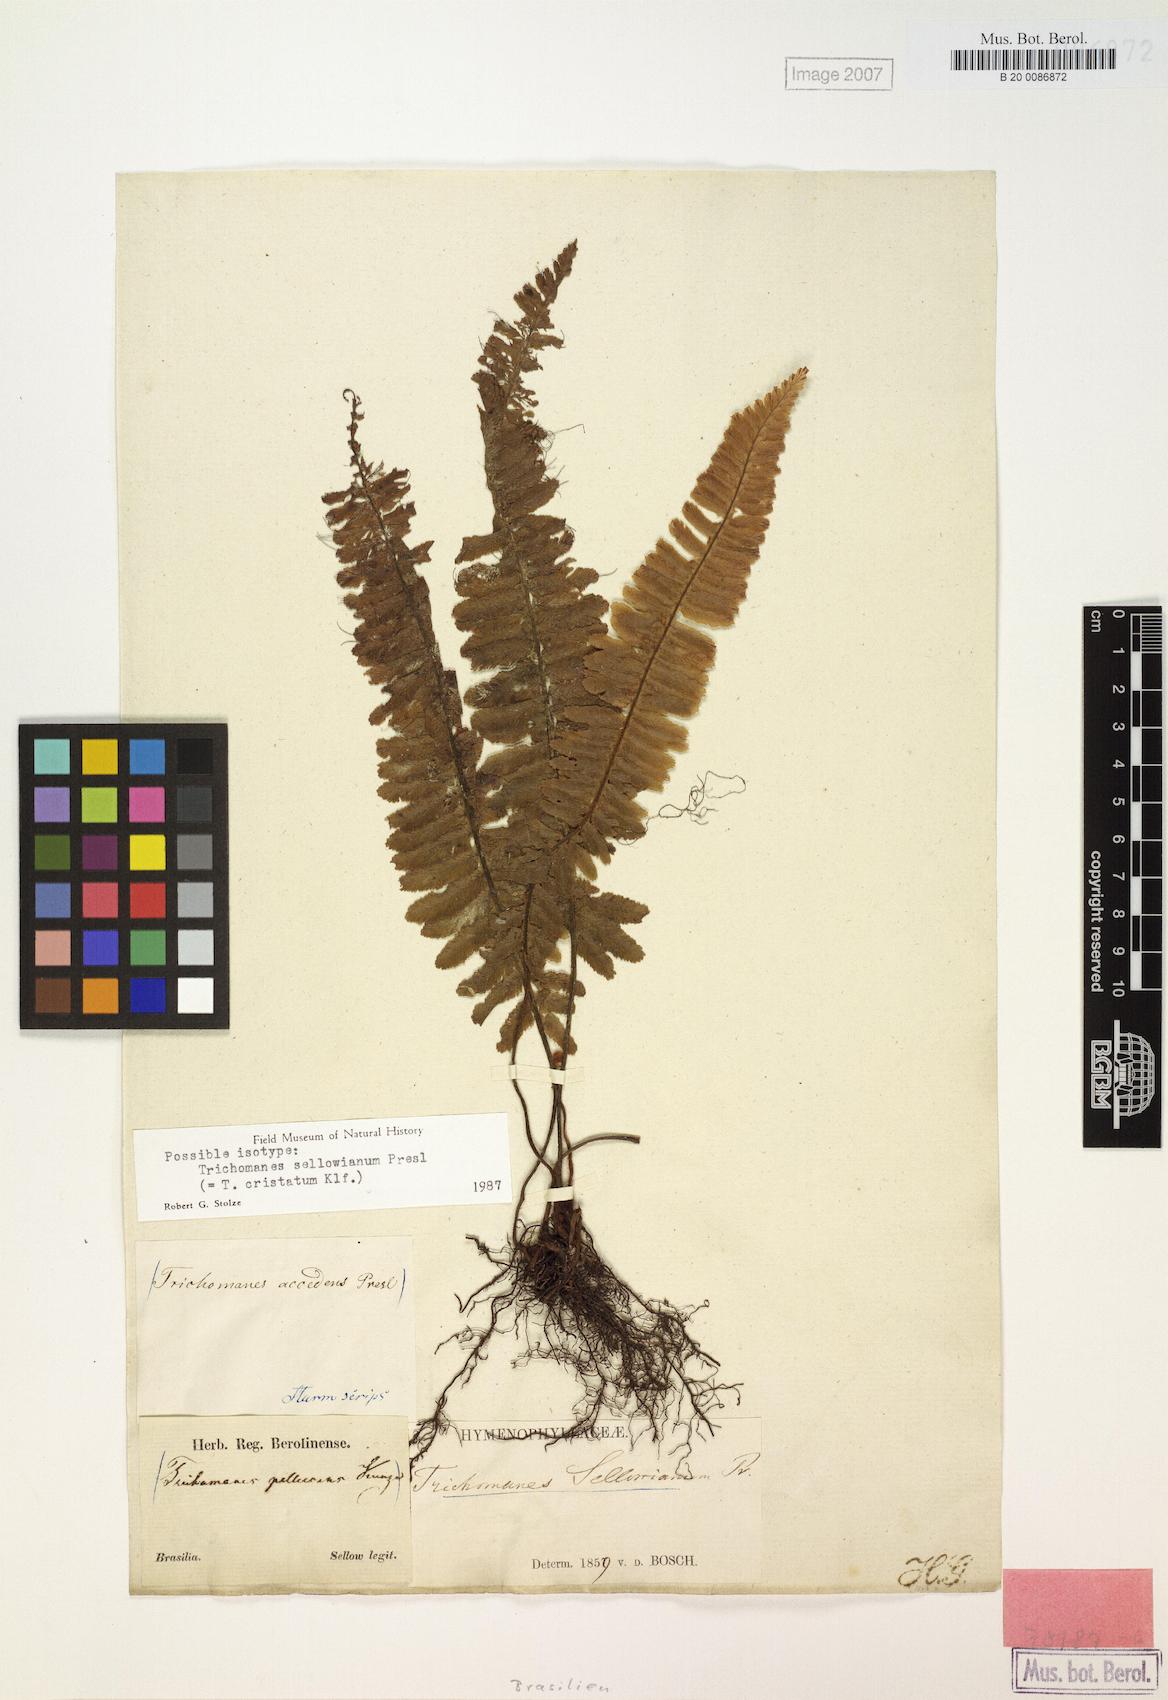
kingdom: Plantae
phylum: Tracheophyta
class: Polypodiopsida
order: Hymenophyllales
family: Hymenophyllaceae
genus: Trichomanes
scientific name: Trichomanes cristatum
